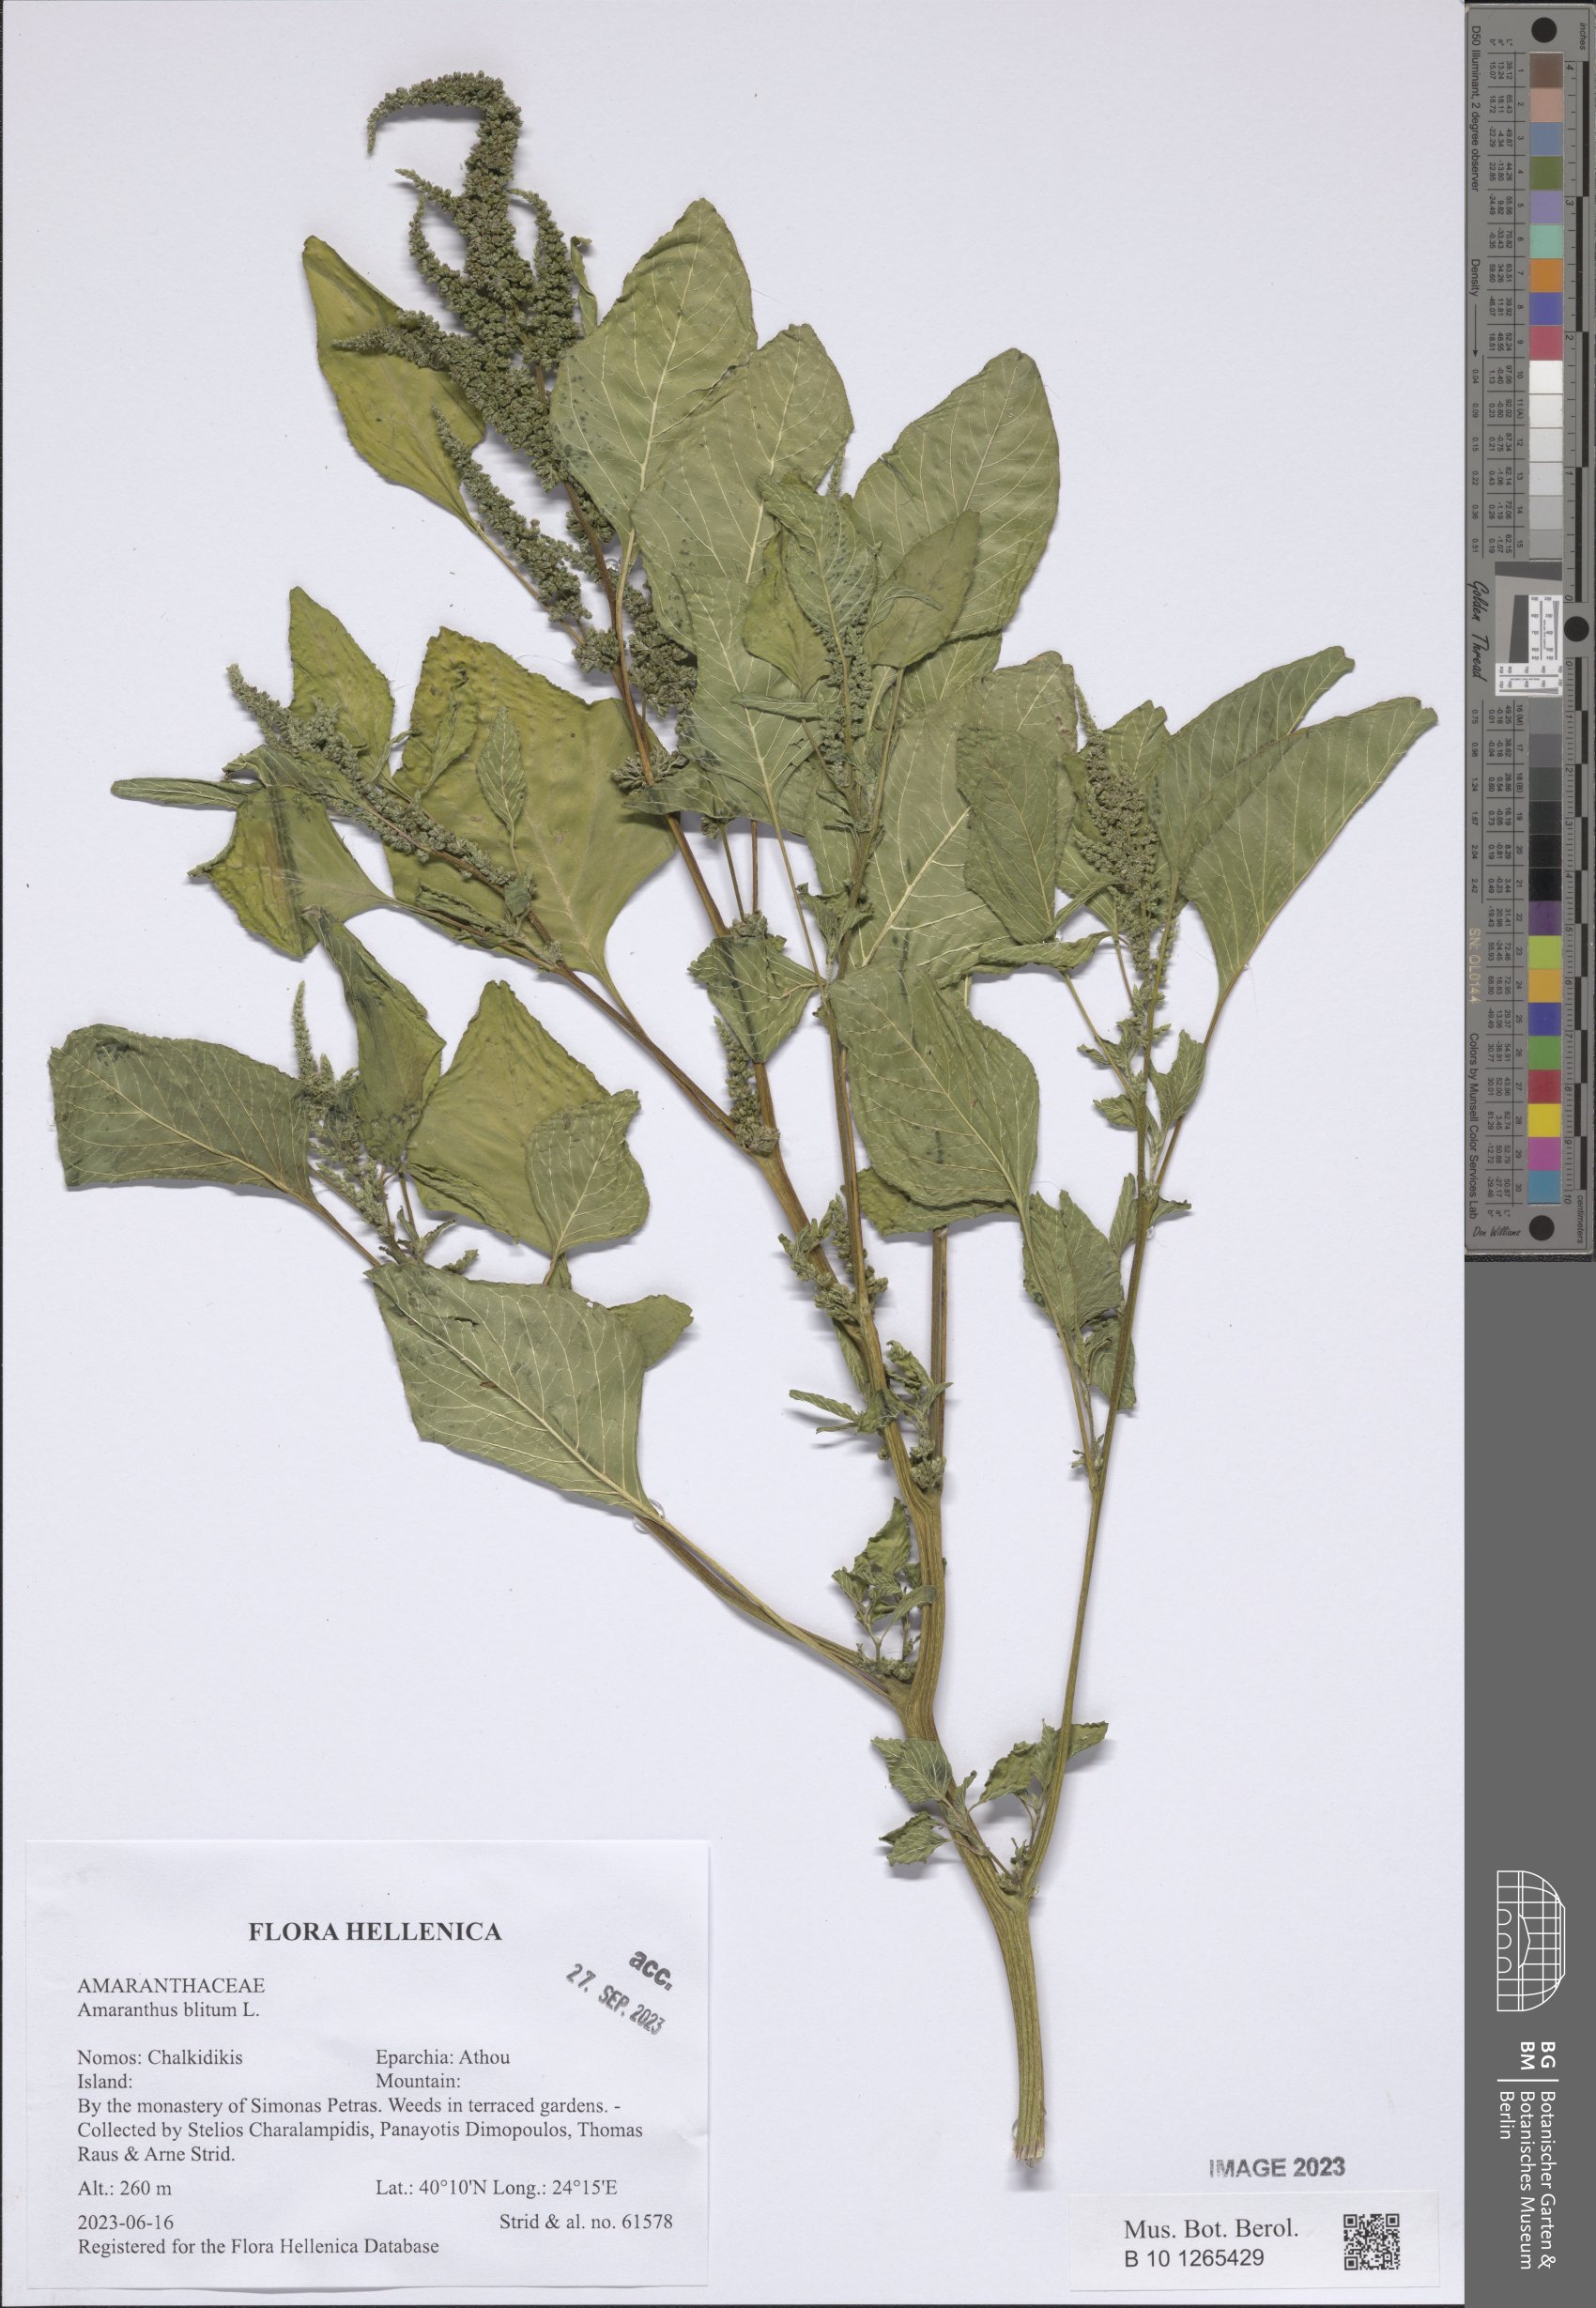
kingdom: Plantae
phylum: Tracheophyta
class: Magnoliopsida
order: Caryophyllales
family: Amaranthaceae
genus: Amaranthus
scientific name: Amaranthus blitum
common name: Purple amaranth
